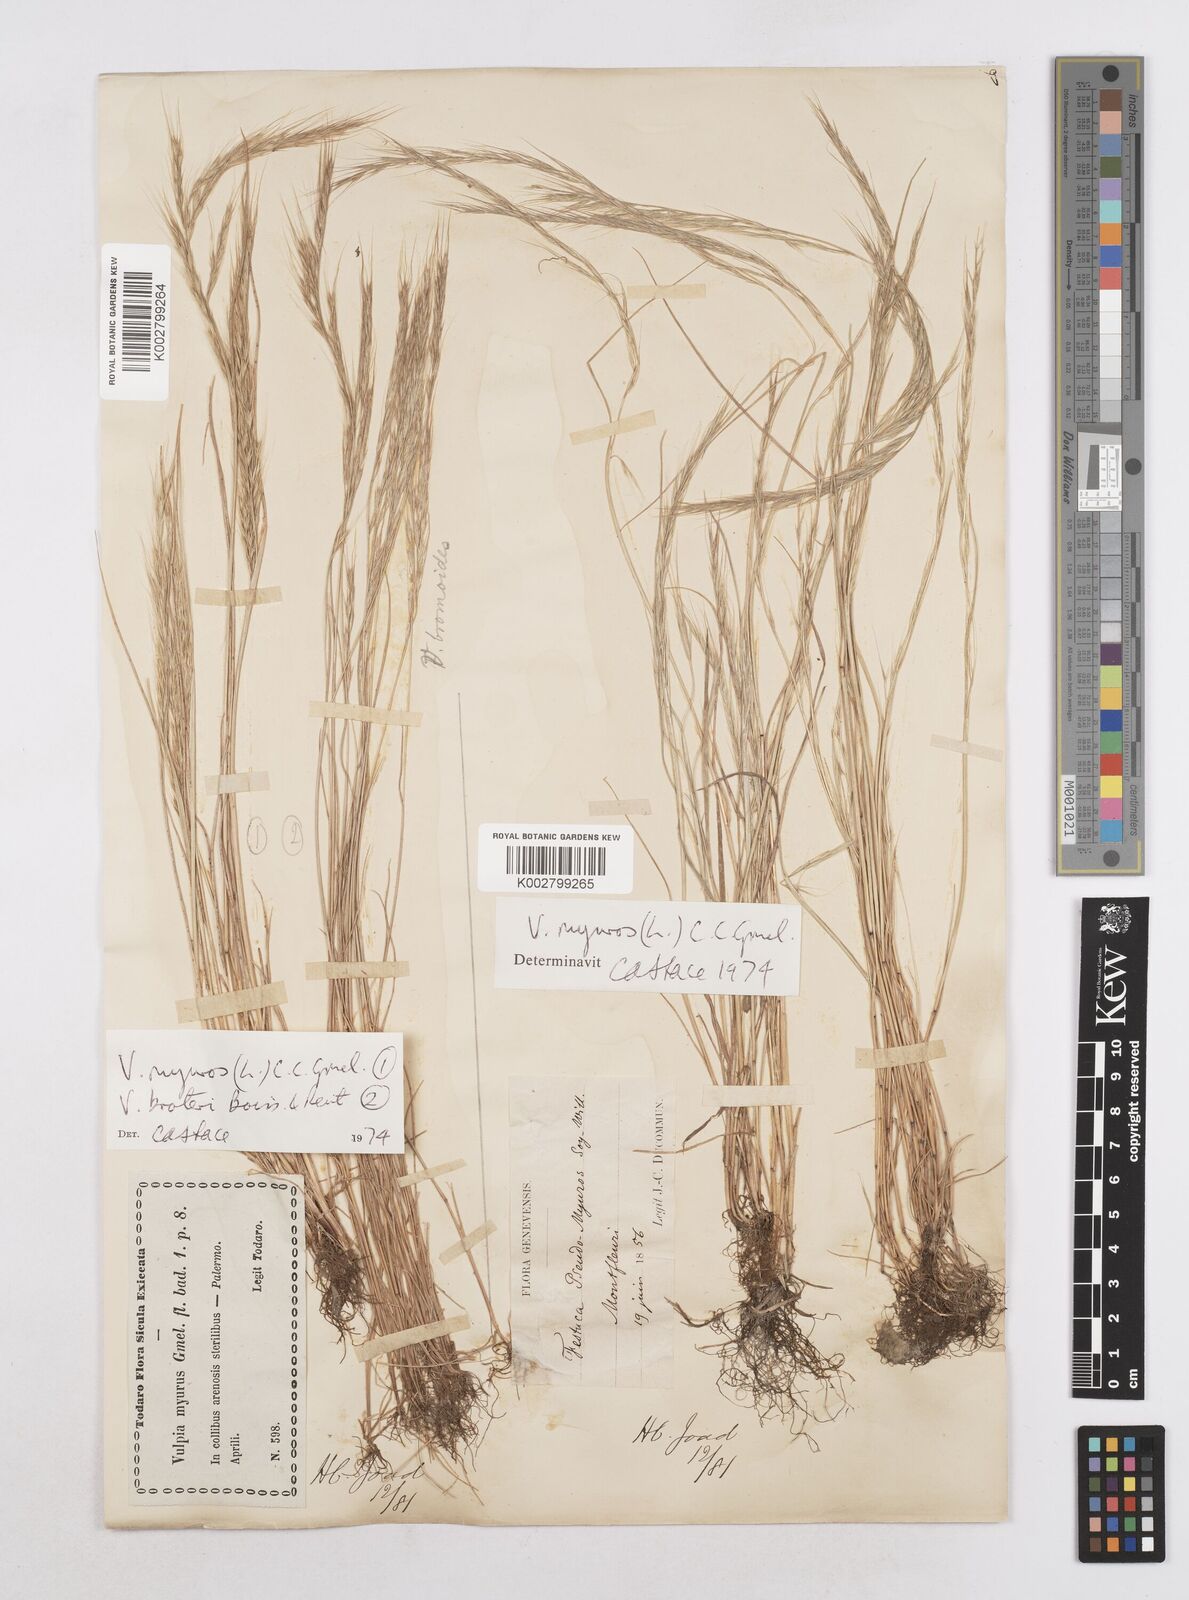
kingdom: Plantae
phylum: Tracheophyta
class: Liliopsida
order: Poales
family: Poaceae
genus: Festuca
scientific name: Festuca muralis
